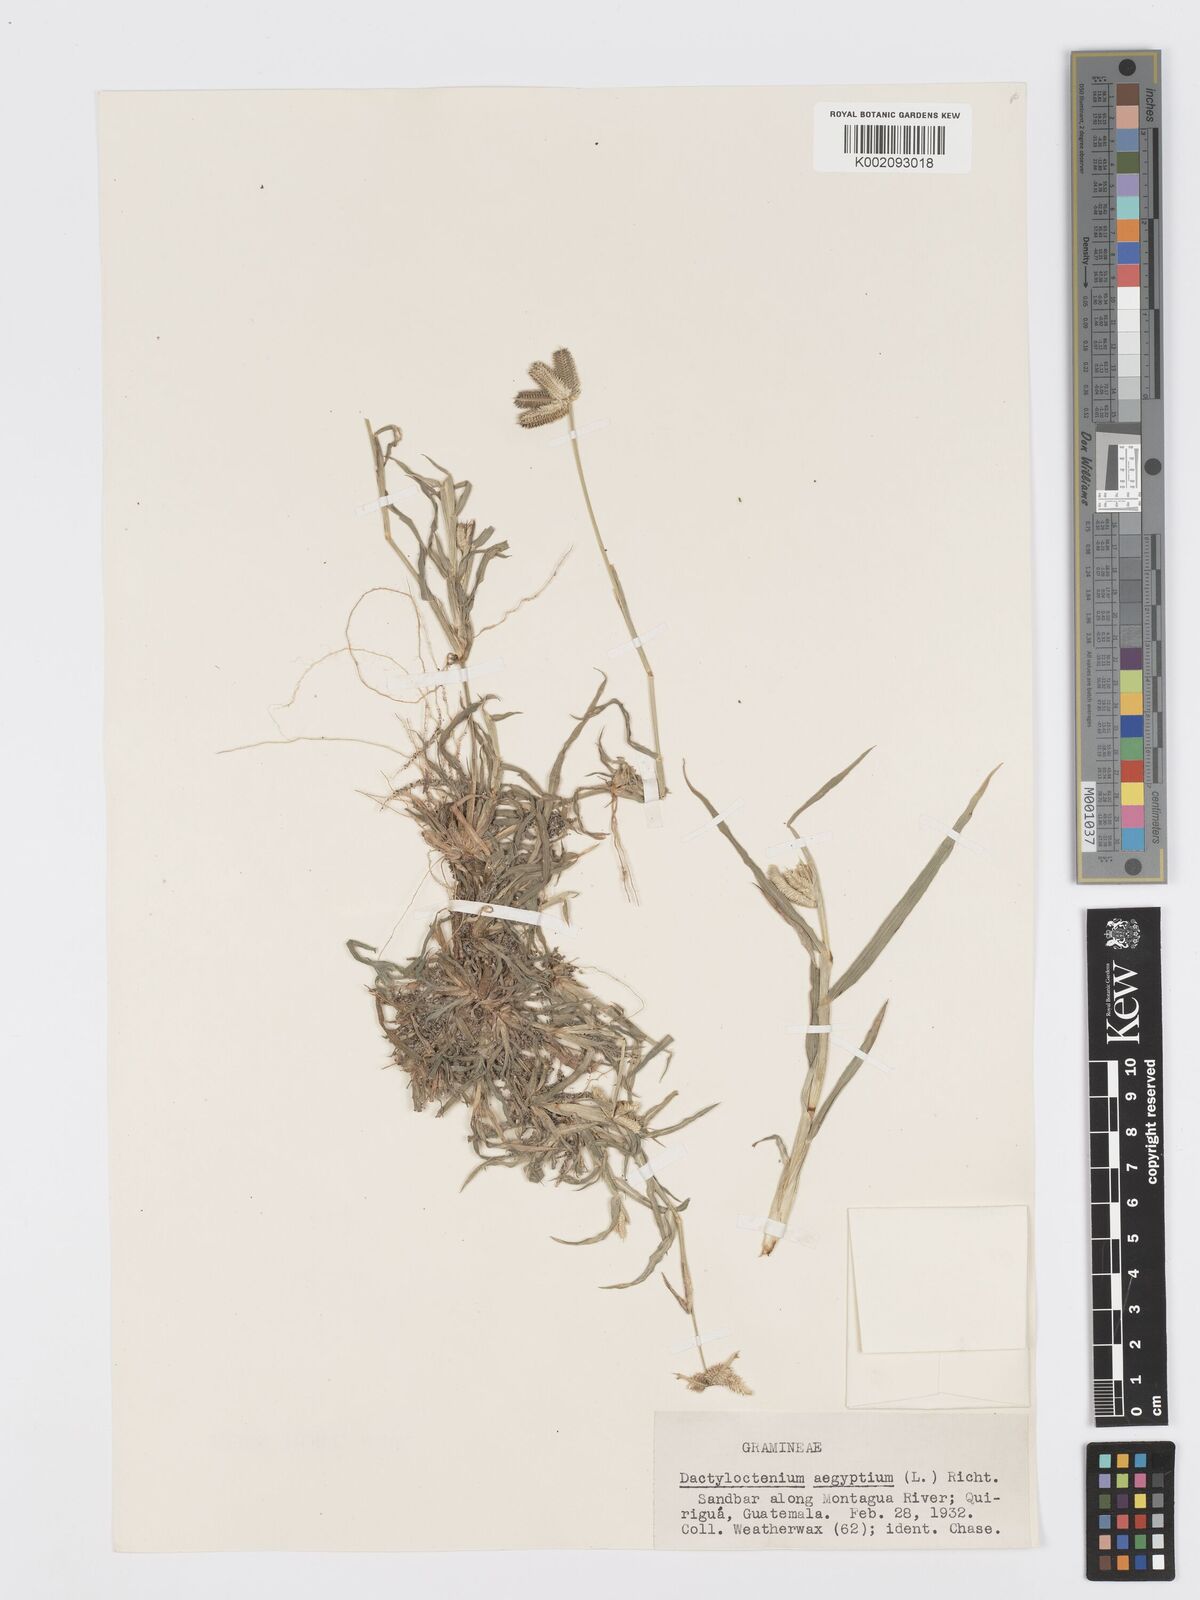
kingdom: Plantae
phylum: Tracheophyta
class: Liliopsida
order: Poales
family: Poaceae
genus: Dactyloctenium
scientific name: Dactyloctenium aegyptium
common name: Egyptian grass
